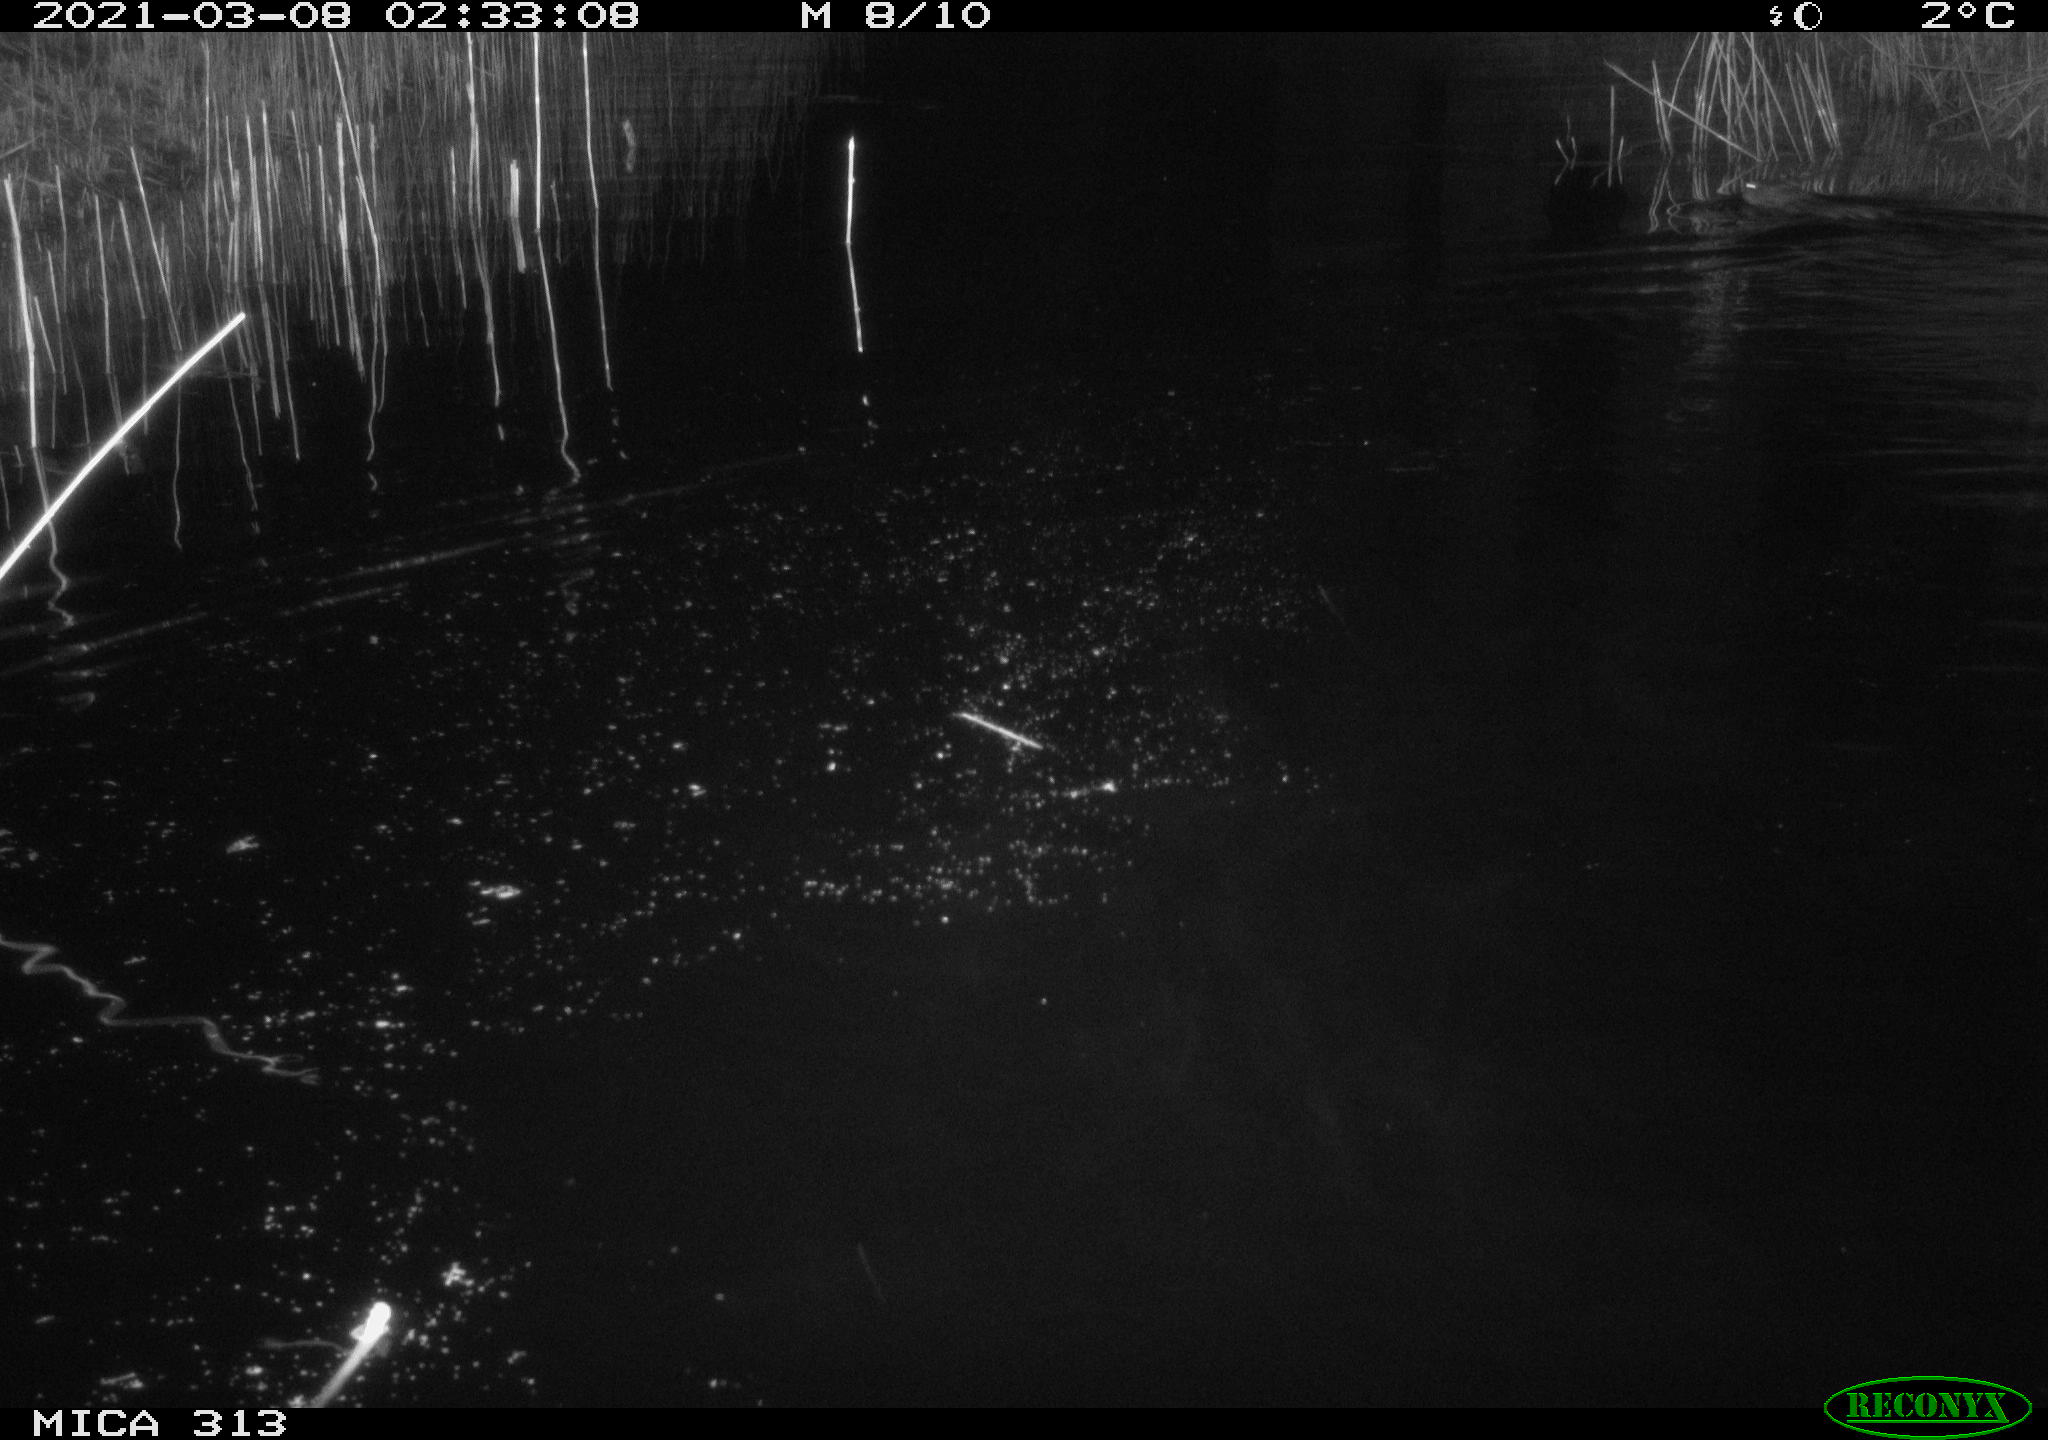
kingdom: Animalia
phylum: Chordata
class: Mammalia
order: Rodentia
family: Cricetidae
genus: Ondatra
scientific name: Ondatra zibethicus
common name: Muskrat
